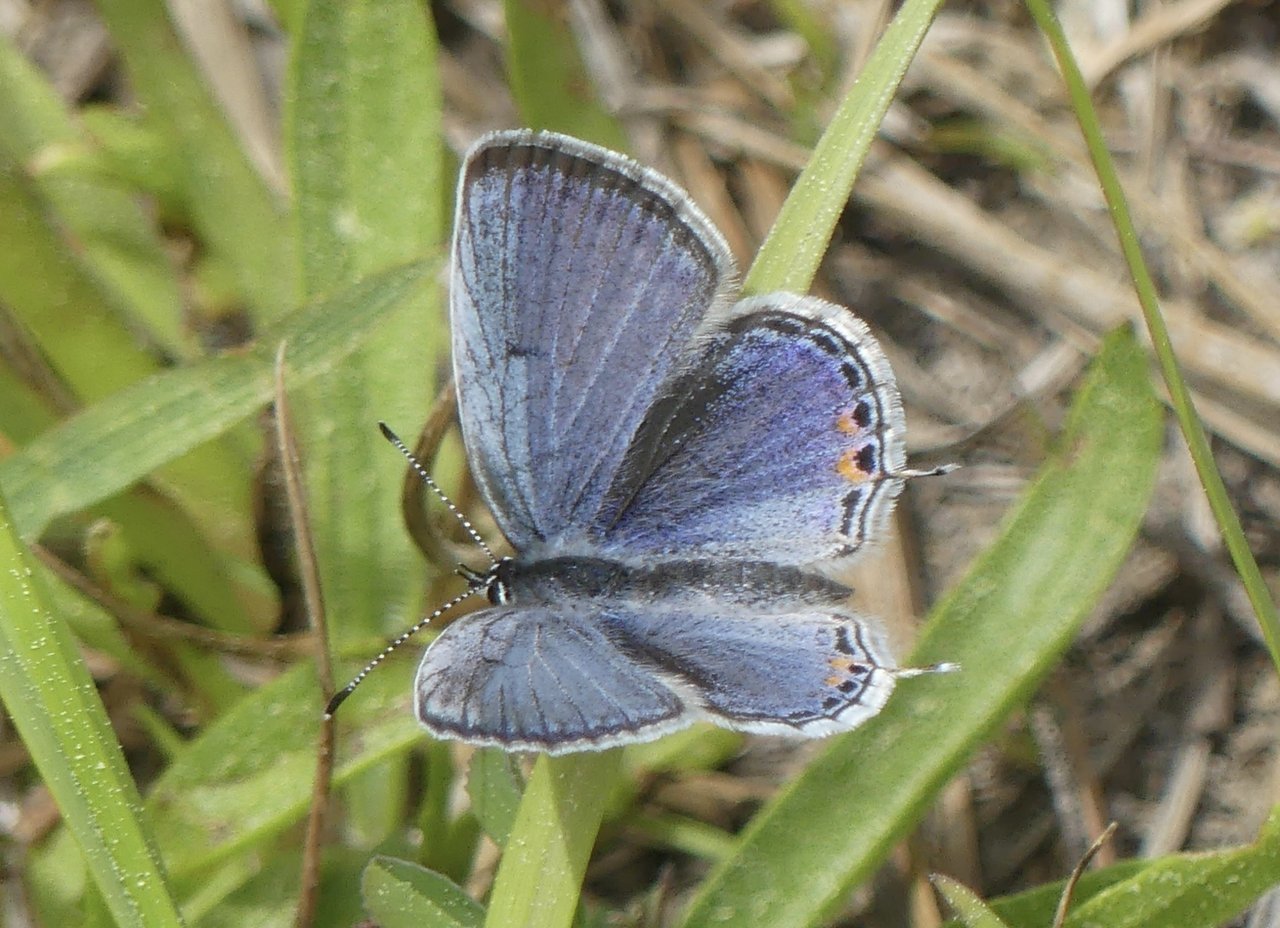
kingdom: Animalia
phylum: Arthropoda
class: Insecta
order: Lepidoptera
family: Lycaenidae
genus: Elkalyce
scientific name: Elkalyce comyntas
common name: Eastern Tailed-Blue
